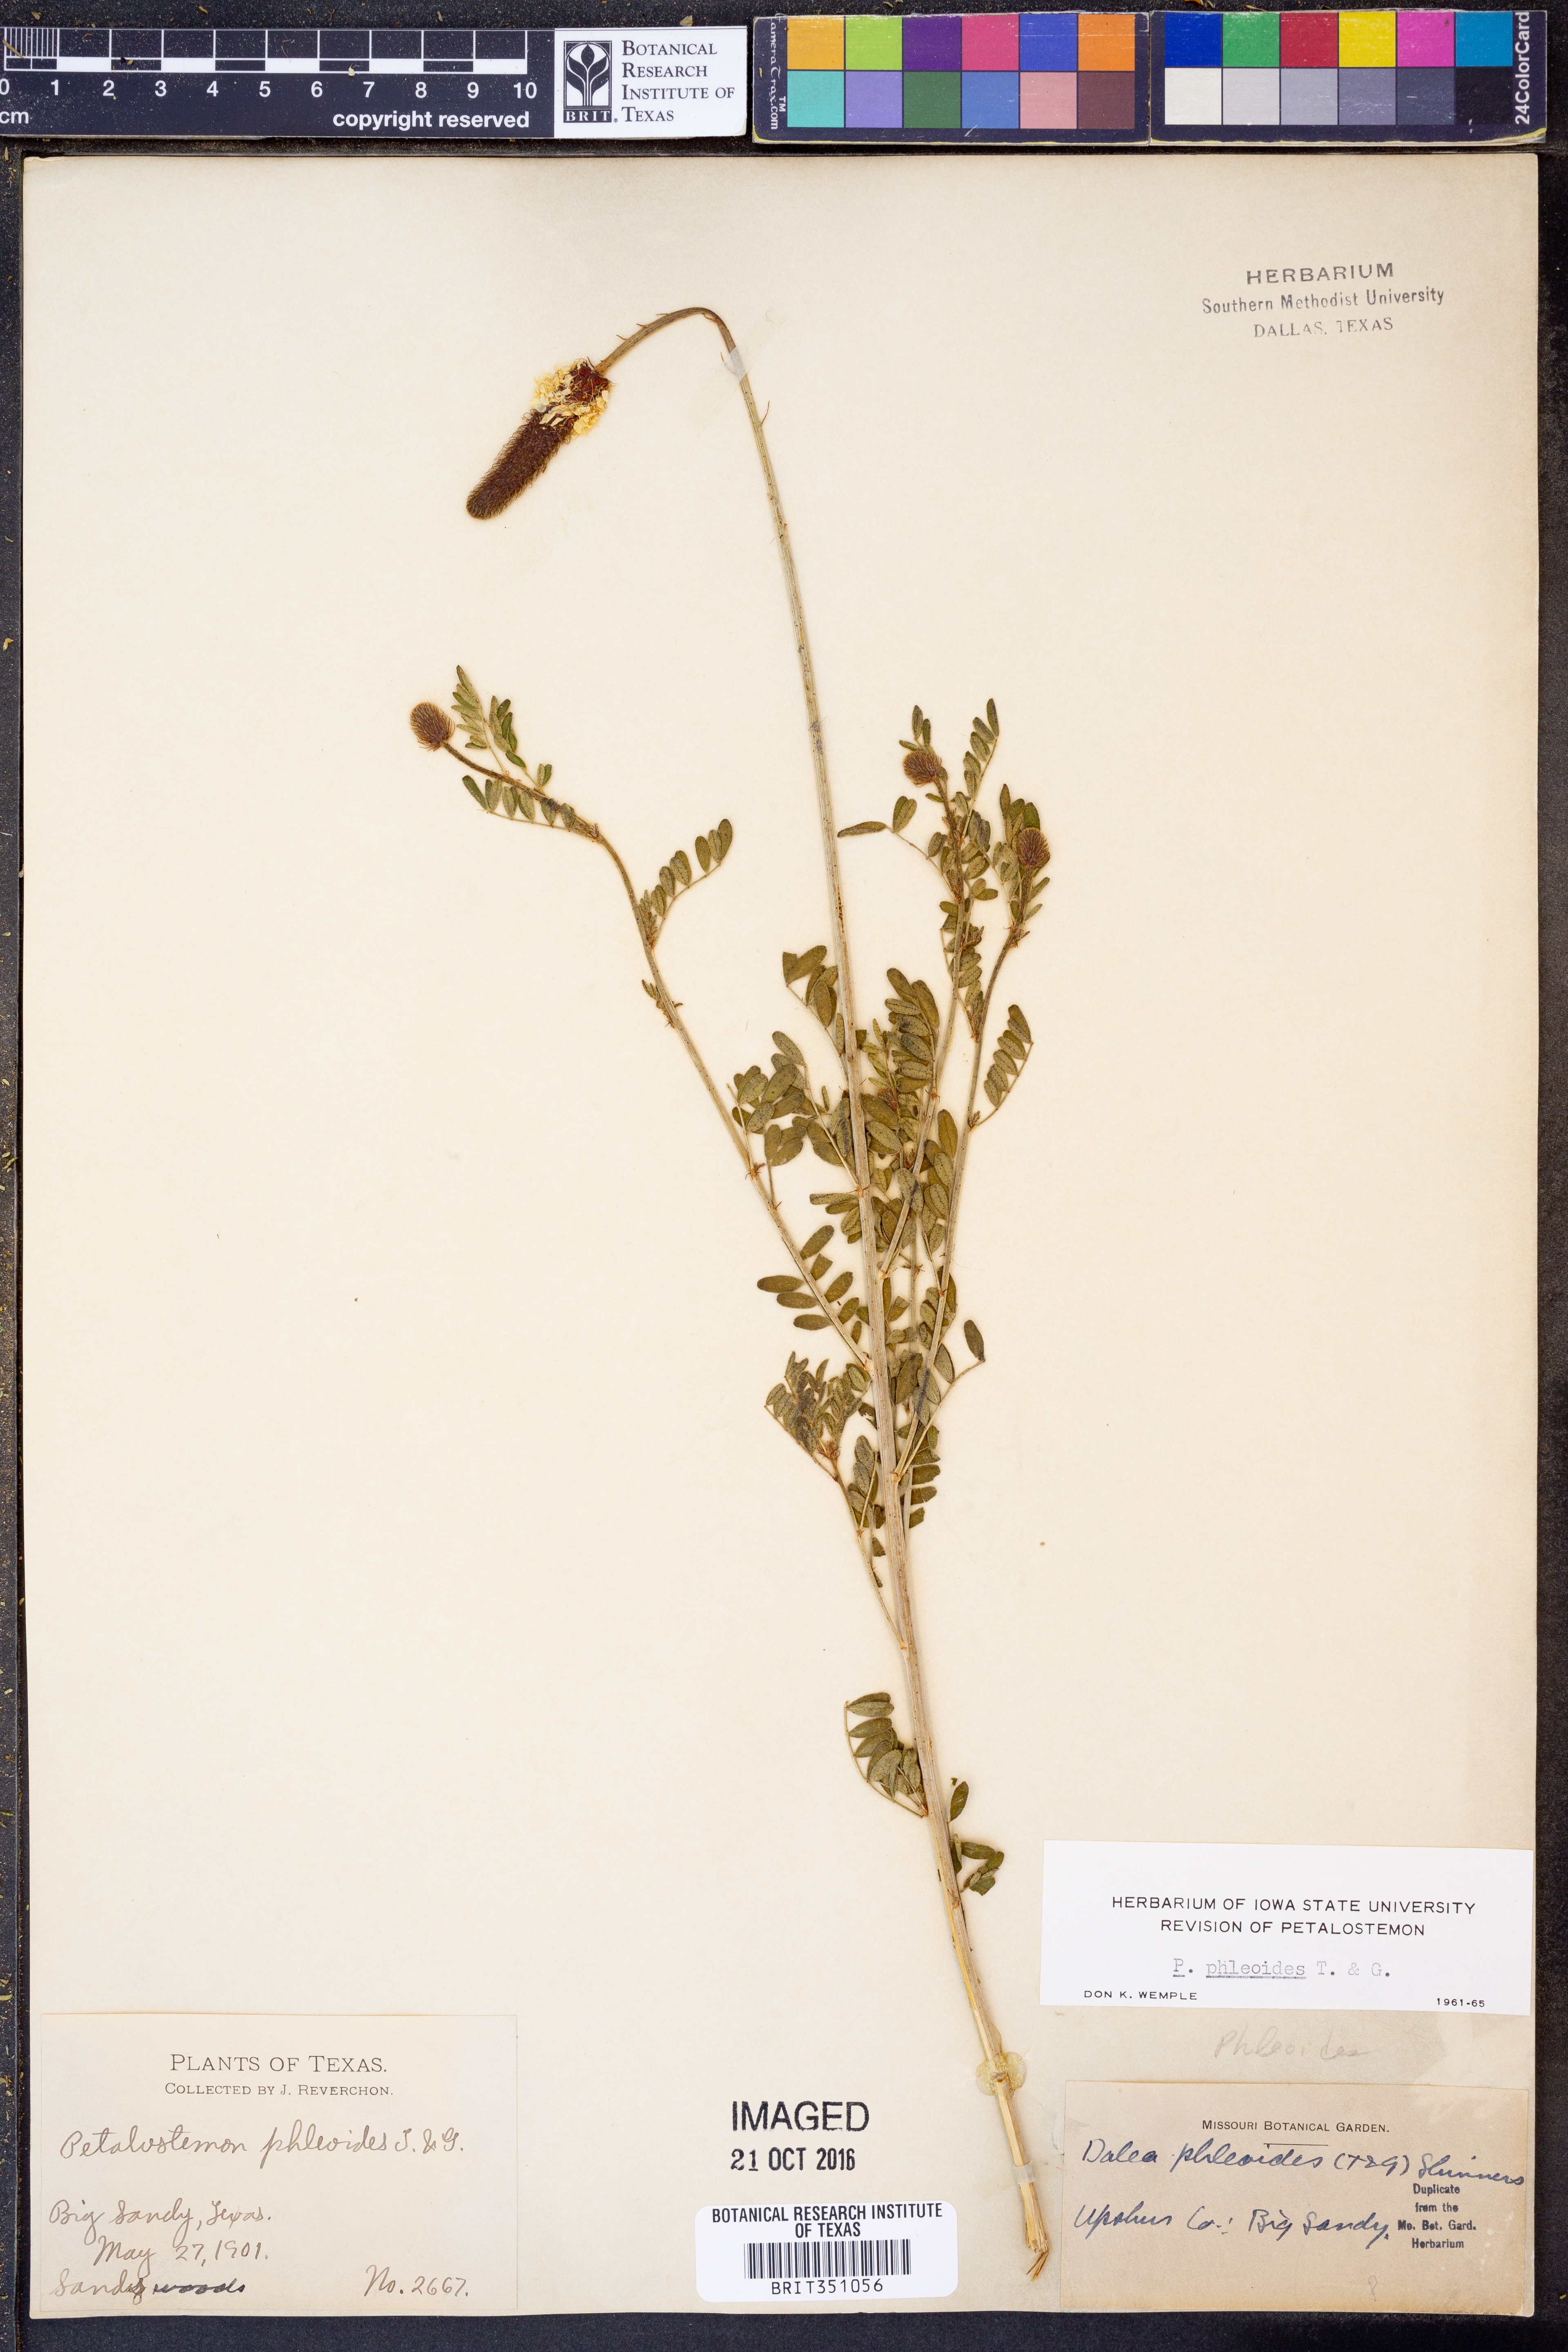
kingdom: Plantae
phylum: Tracheophyta
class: Magnoliopsida
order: Fabales
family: Fabaceae
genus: Dalea
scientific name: Dalea phleoides
